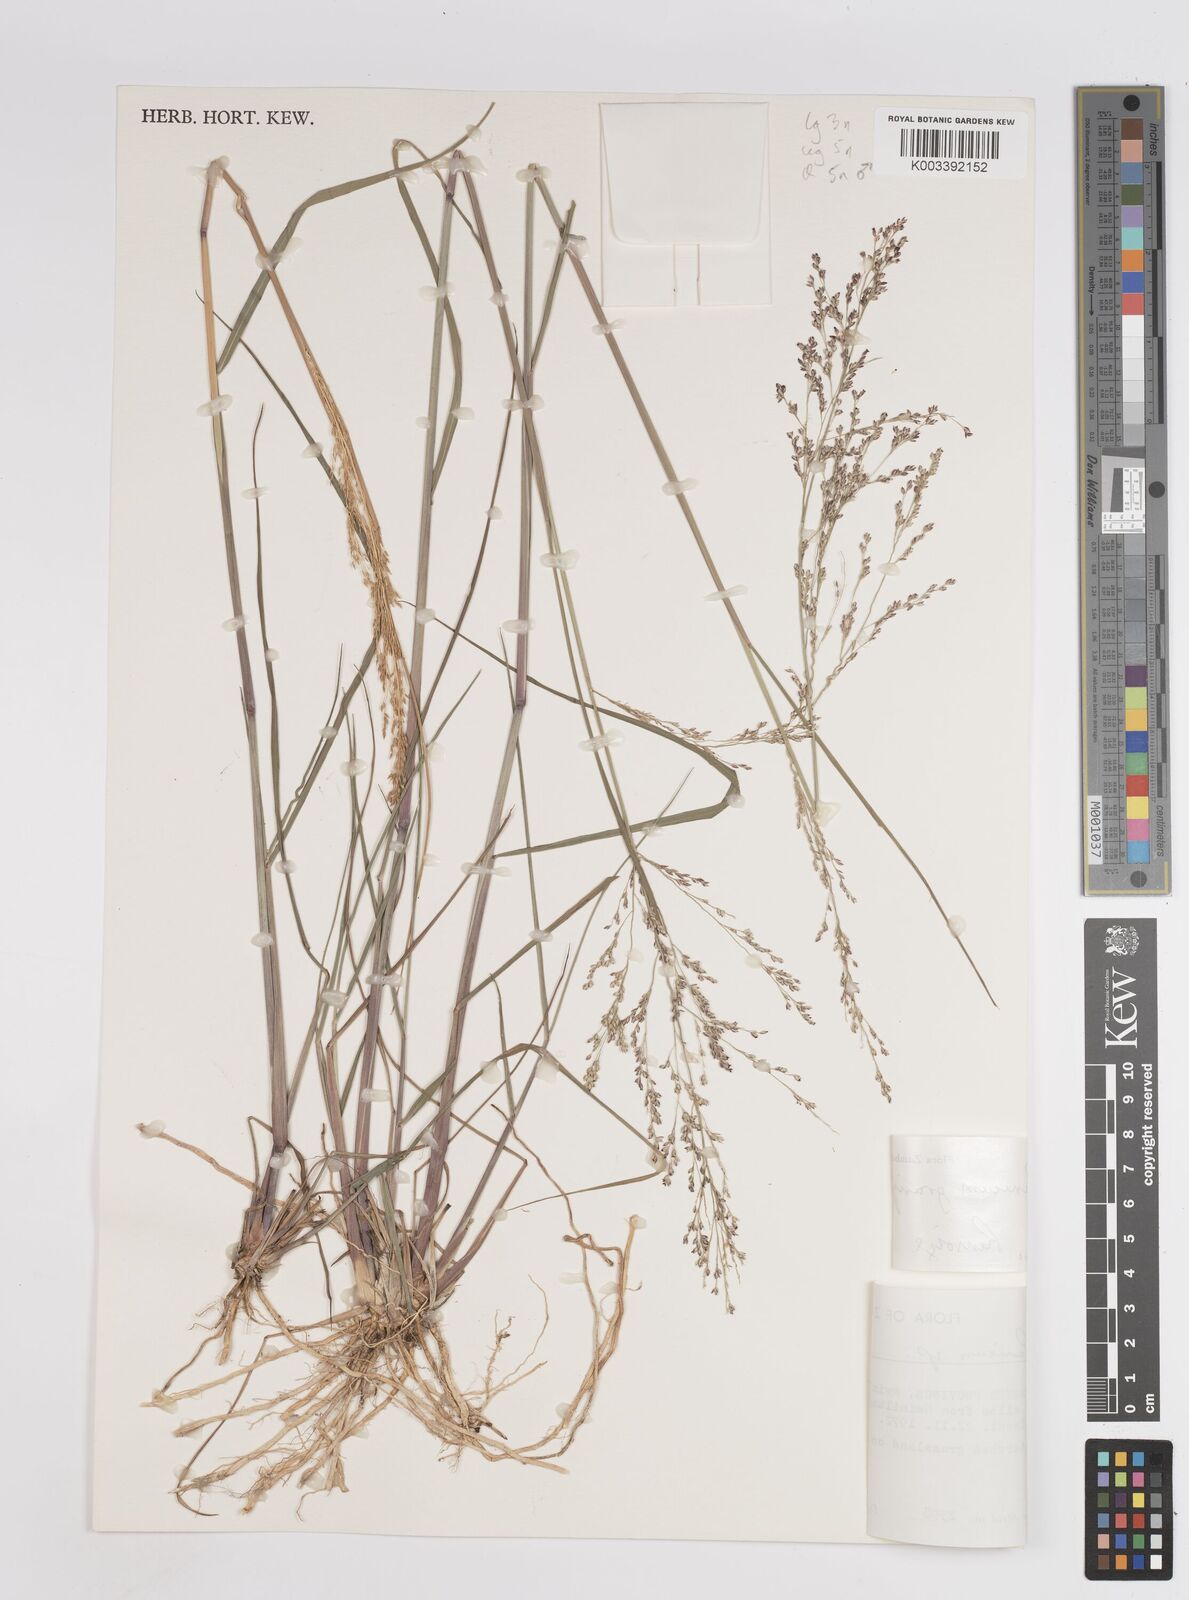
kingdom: Plantae
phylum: Tracheophyta
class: Liliopsida
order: Poales
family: Poaceae
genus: Panicum
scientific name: Panicum graniflorum
